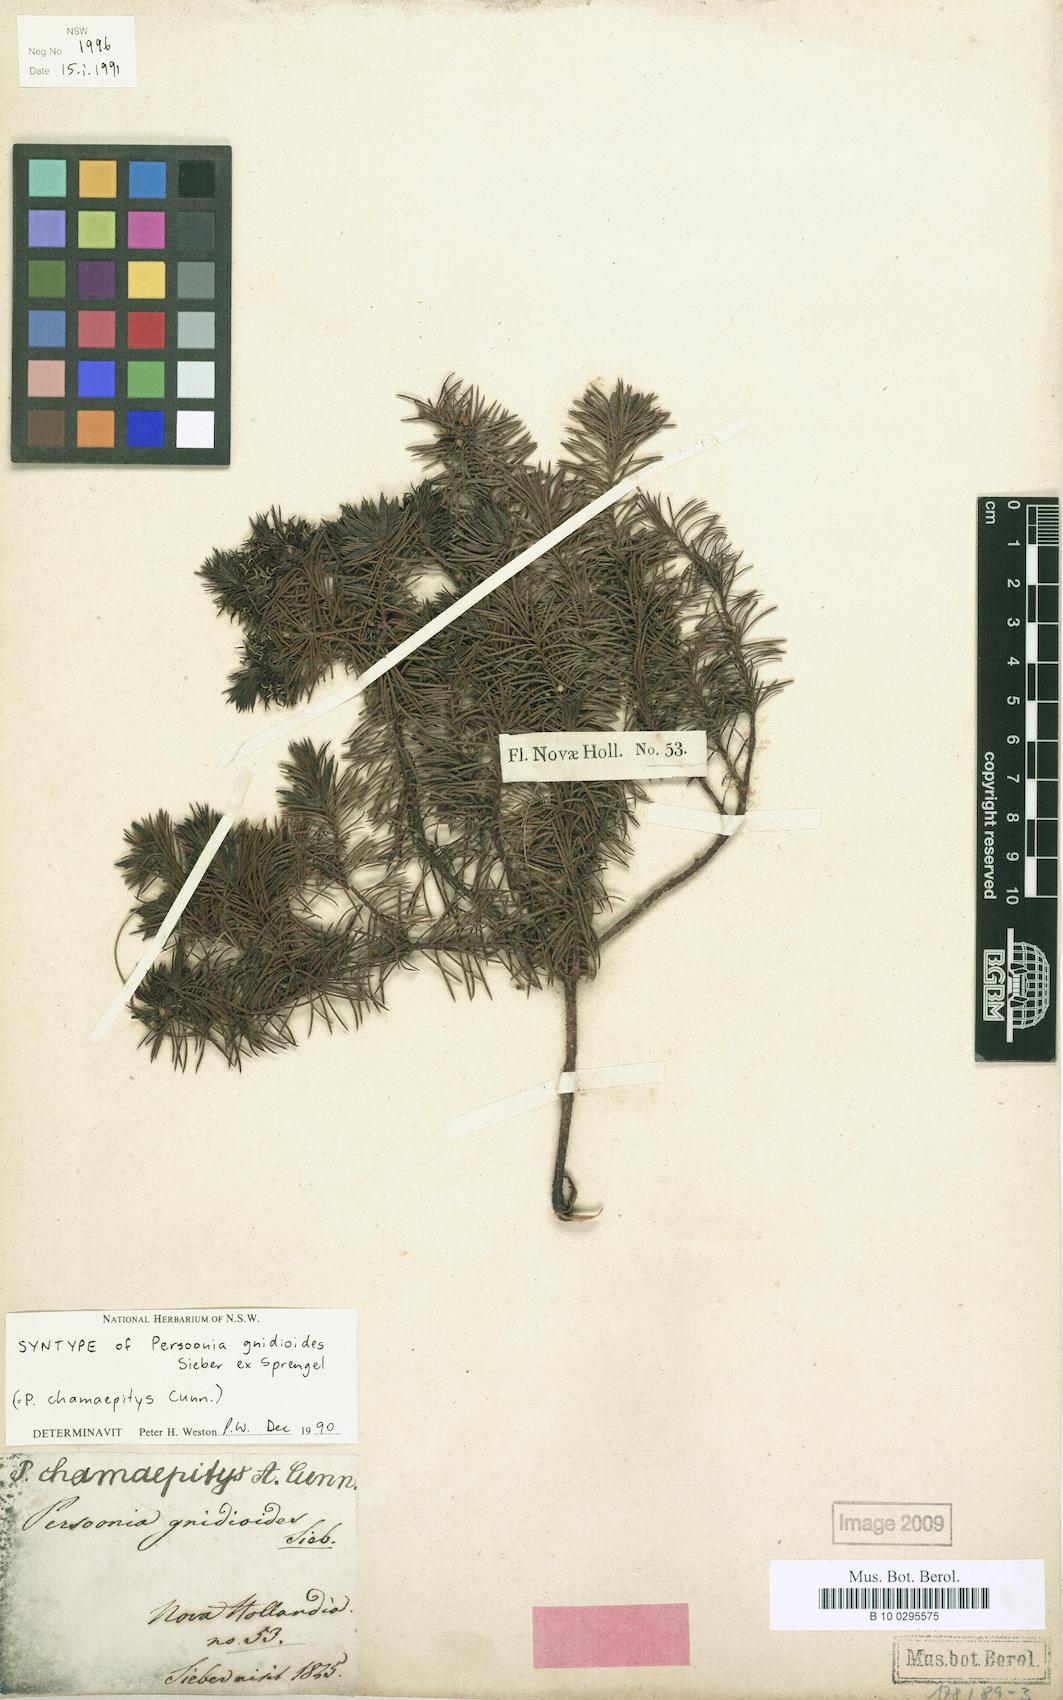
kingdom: Plantae
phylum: Tracheophyta
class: Magnoliopsida
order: Proteales
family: Proteaceae
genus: Persoonia
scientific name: Persoonia chamaepitys
